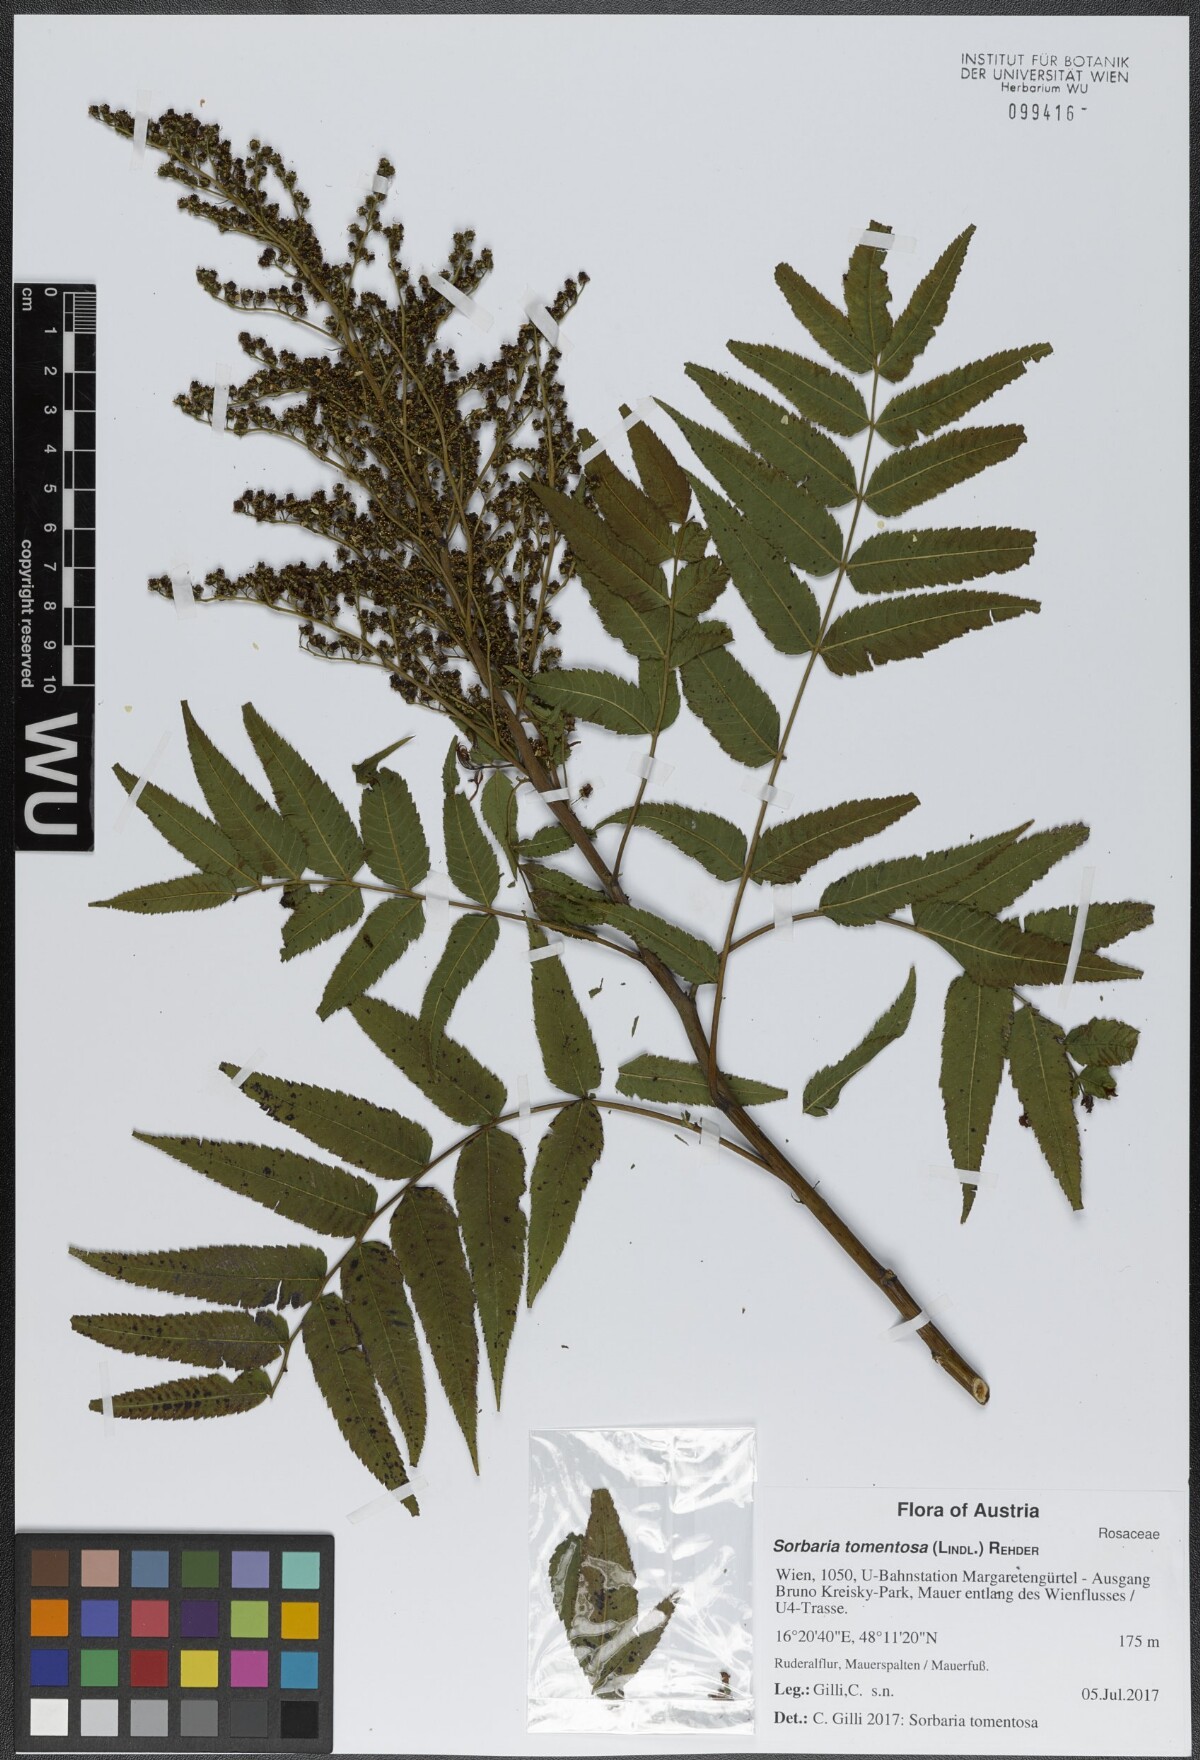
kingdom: Plantae
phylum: Tracheophyta
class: Magnoliopsida
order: Rosales
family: Rosaceae
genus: Sorbaria
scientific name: Sorbaria tomentosa
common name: Himalayan sorbaria
